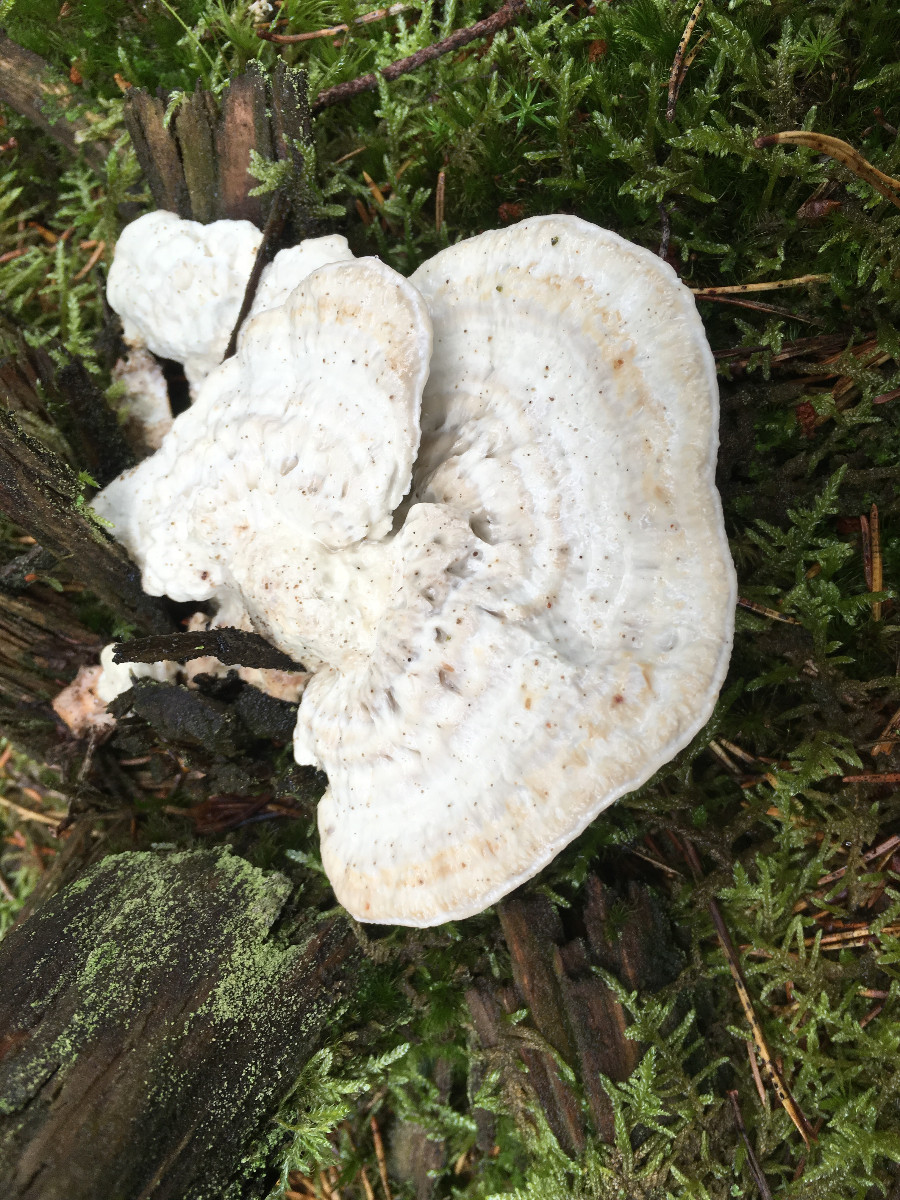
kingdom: Fungi
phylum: Basidiomycota
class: Agaricomycetes
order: Polyporales
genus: Calcipostia
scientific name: Calcipostia guttulata
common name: dråbe-kødporesvamp
